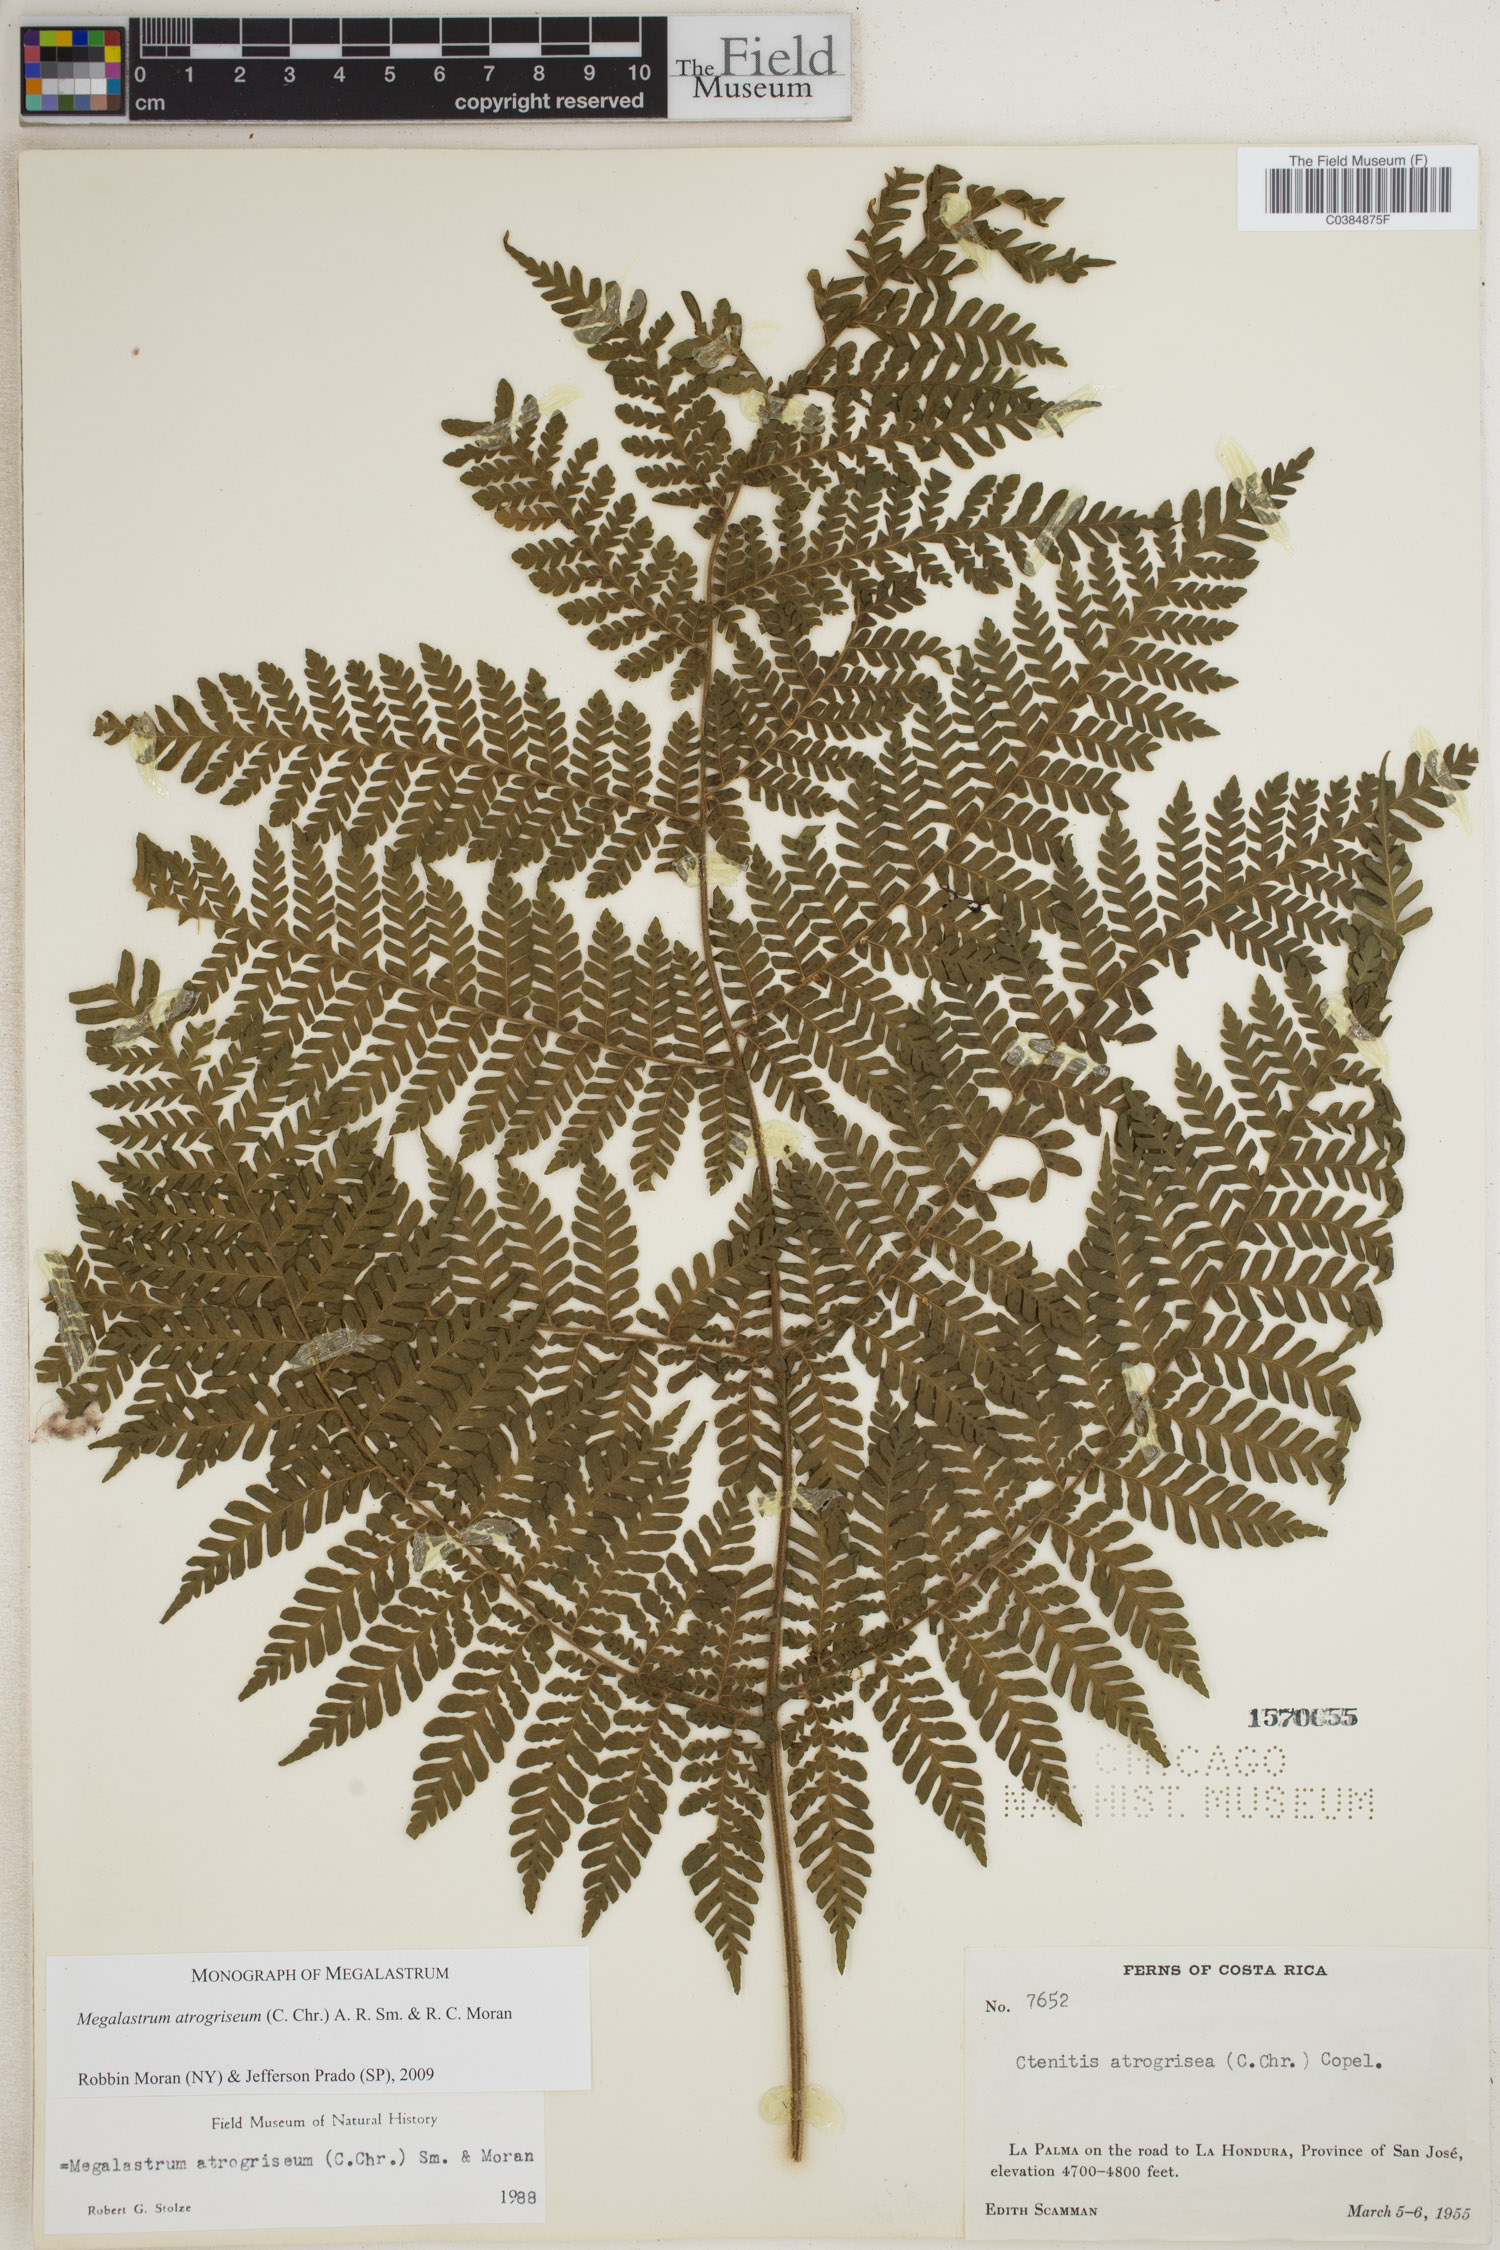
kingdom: Plantae
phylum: Tracheophyta
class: Polypodiopsida
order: Polypodiales
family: Dryopteridaceae
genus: Megalastrum
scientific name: Megalastrum atrogriseum
